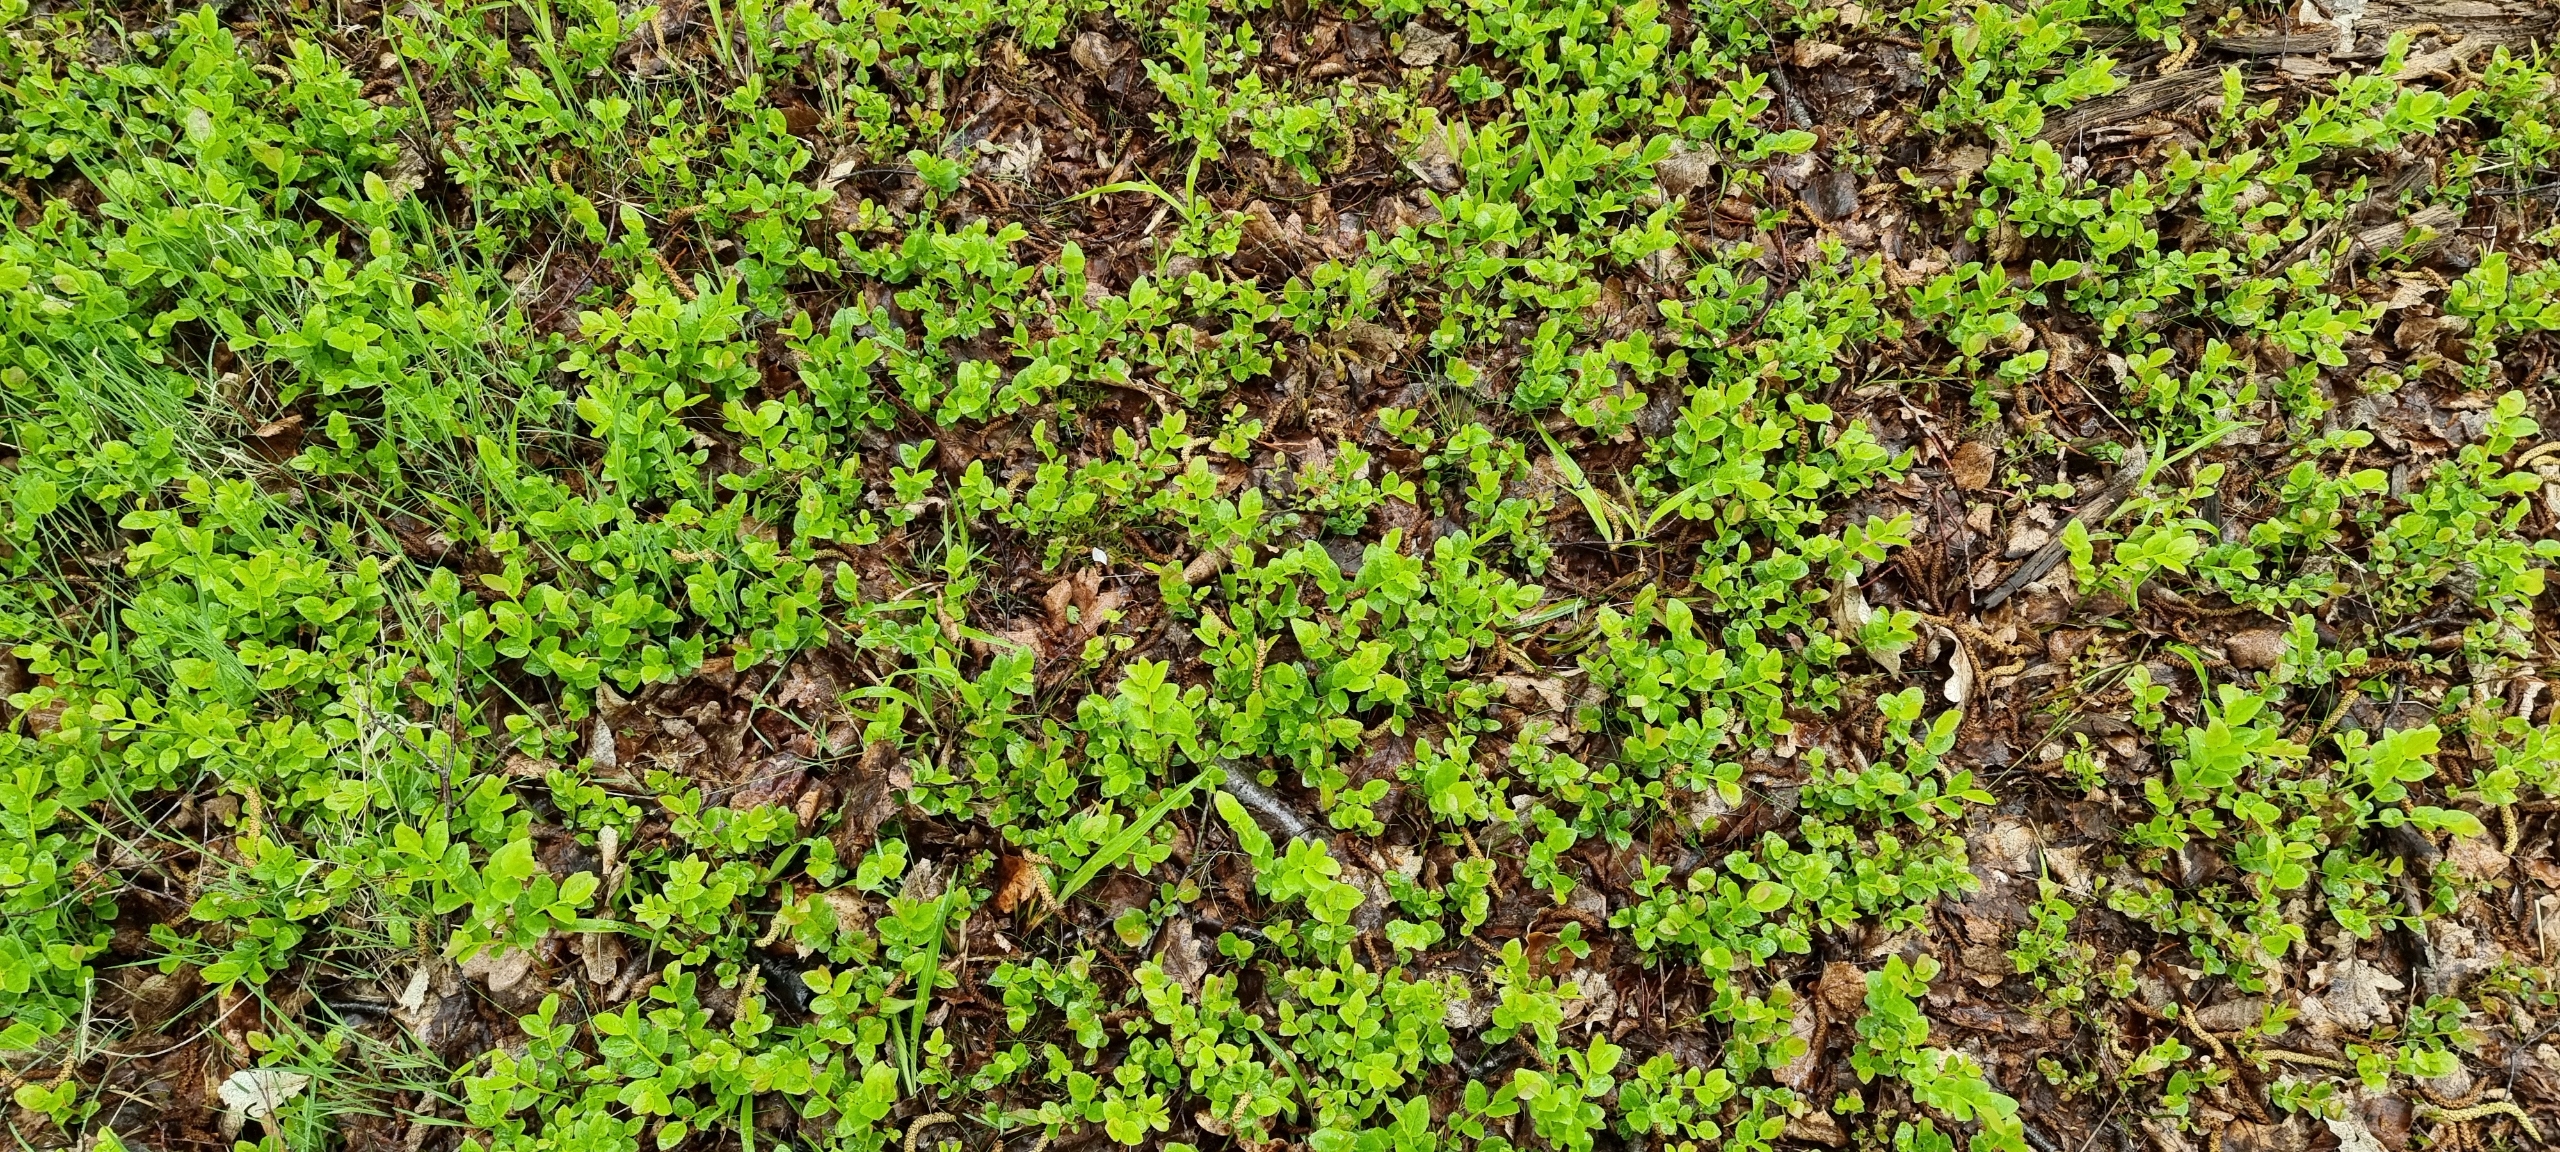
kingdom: Plantae
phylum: Tracheophyta
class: Magnoliopsida
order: Ericales
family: Ericaceae
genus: Vaccinium
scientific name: Vaccinium myrtillus
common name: Blåbær
